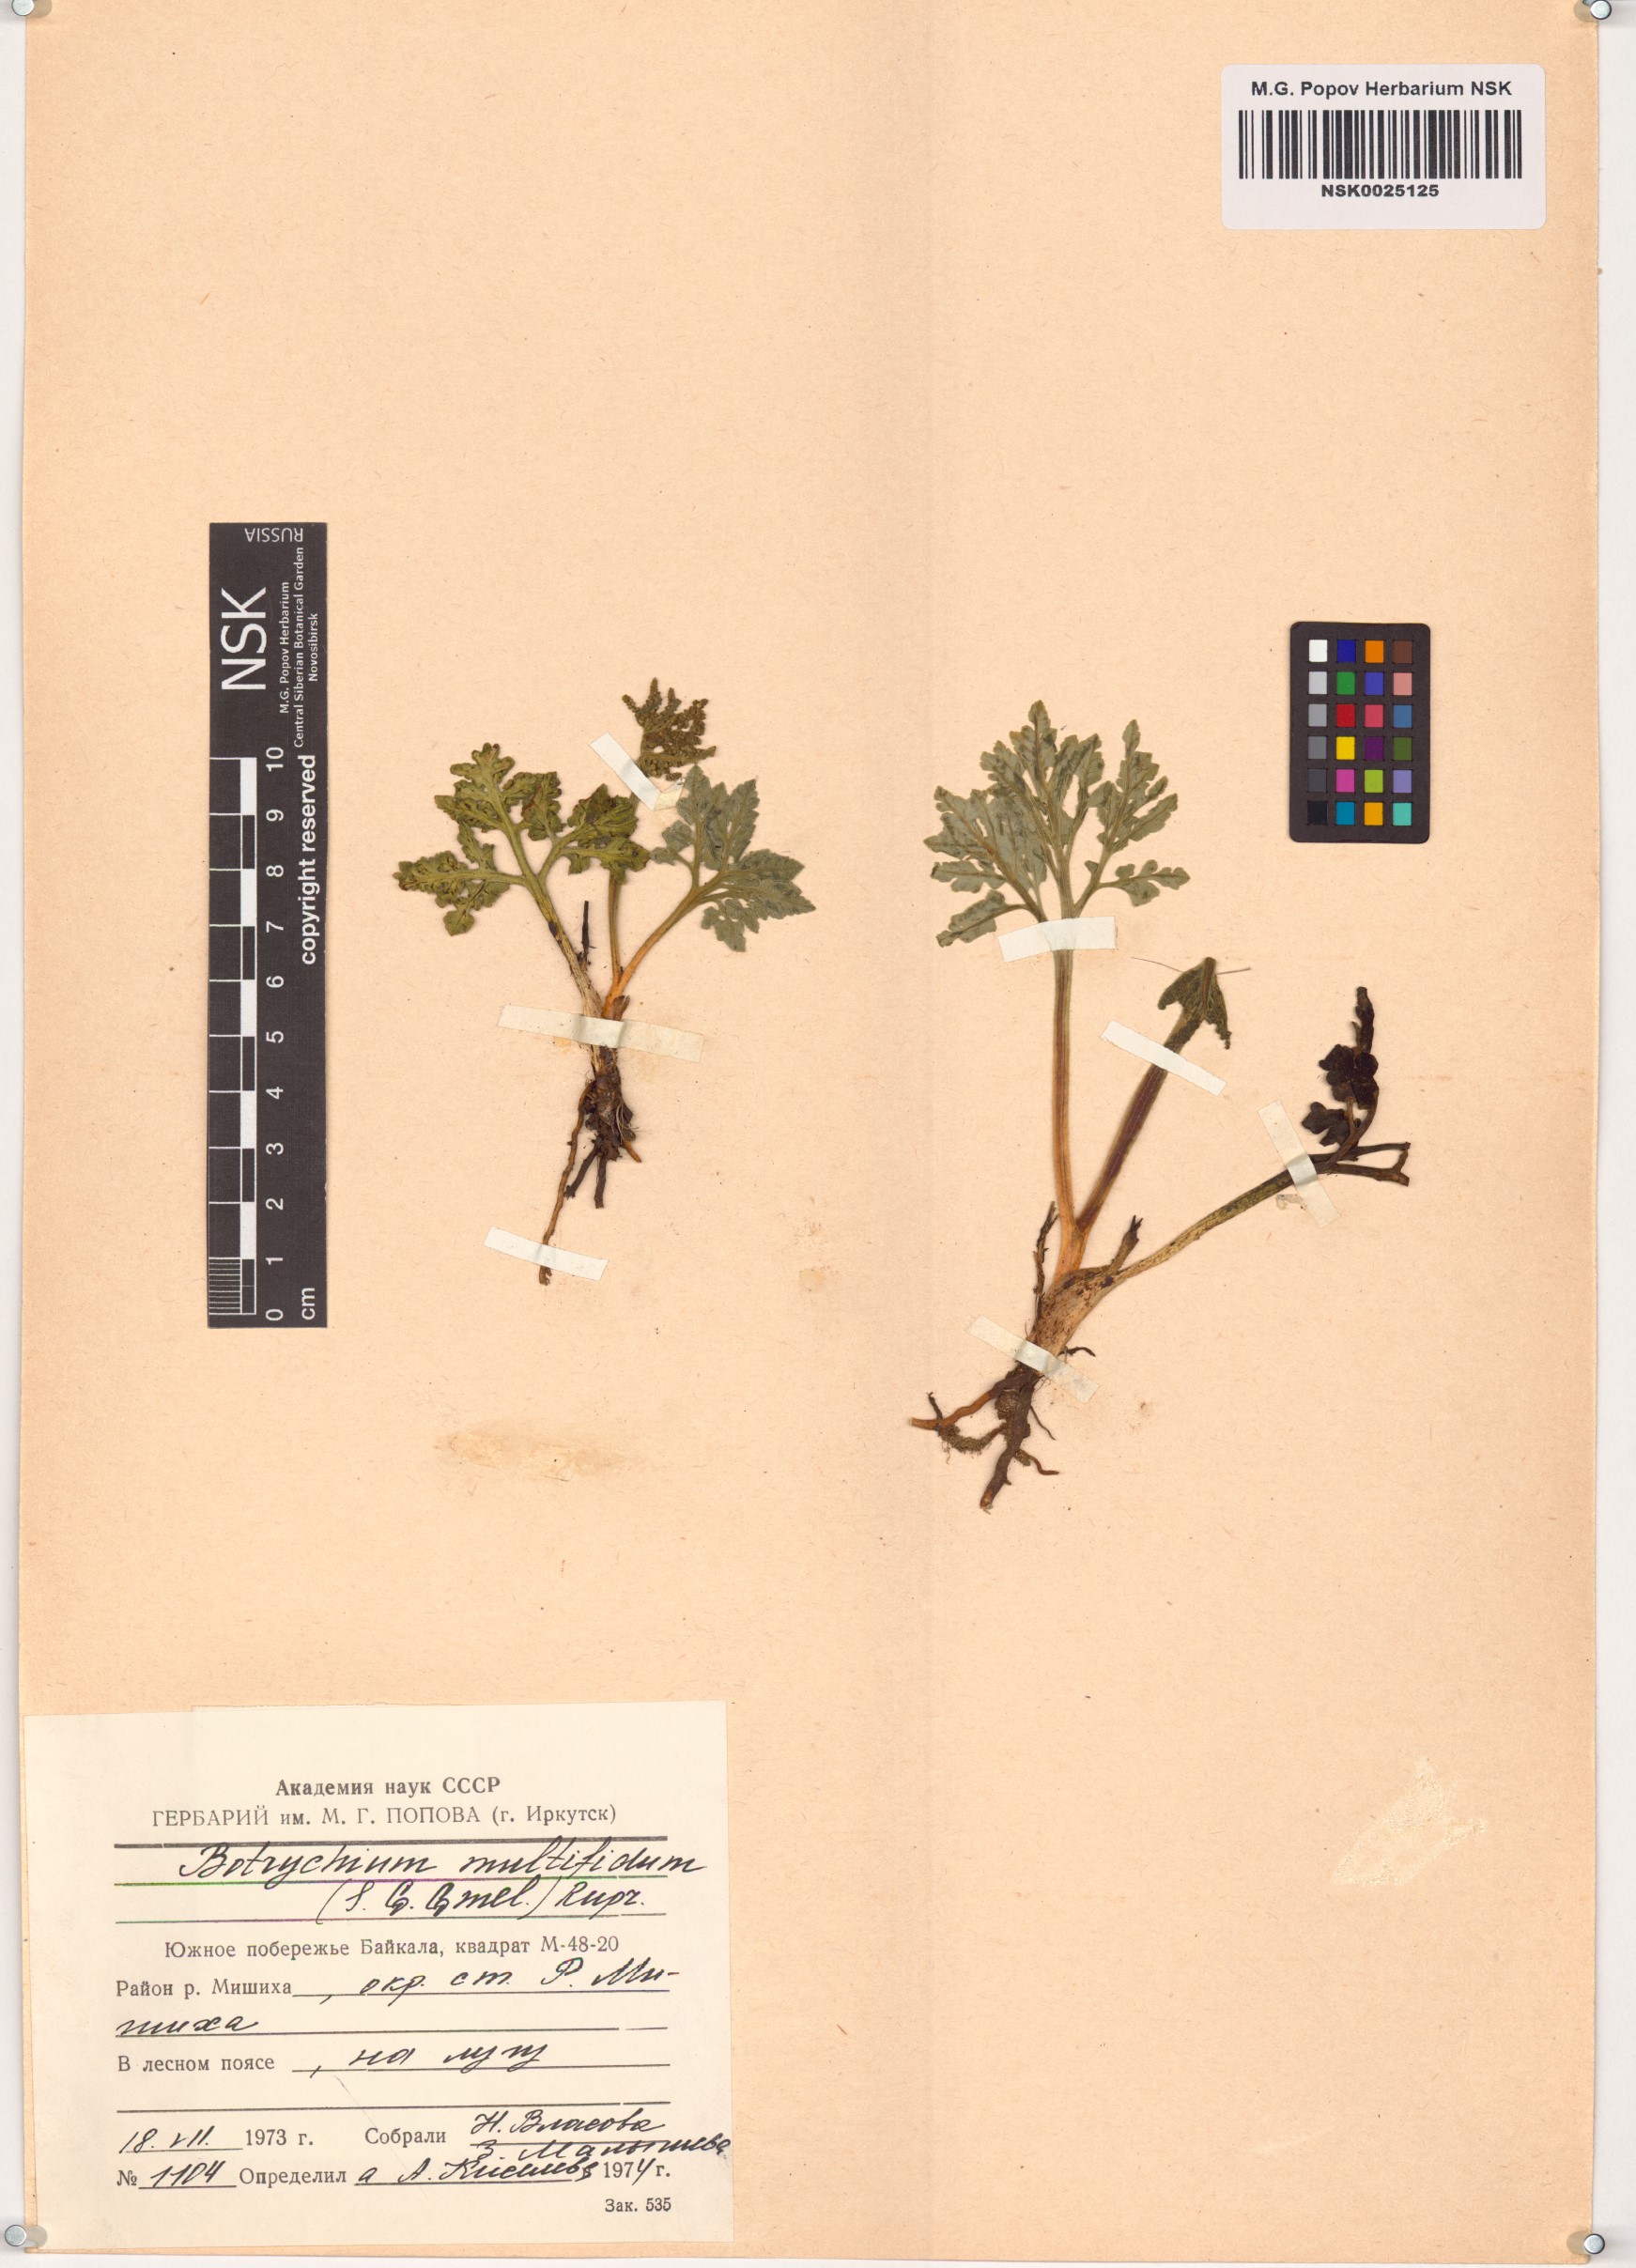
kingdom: Plantae
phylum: Tracheophyta
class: Polypodiopsida
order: Ophioglossales
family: Ophioglossaceae
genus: Sceptridium
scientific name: Sceptridium multifidum
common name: Leathery grape fern
